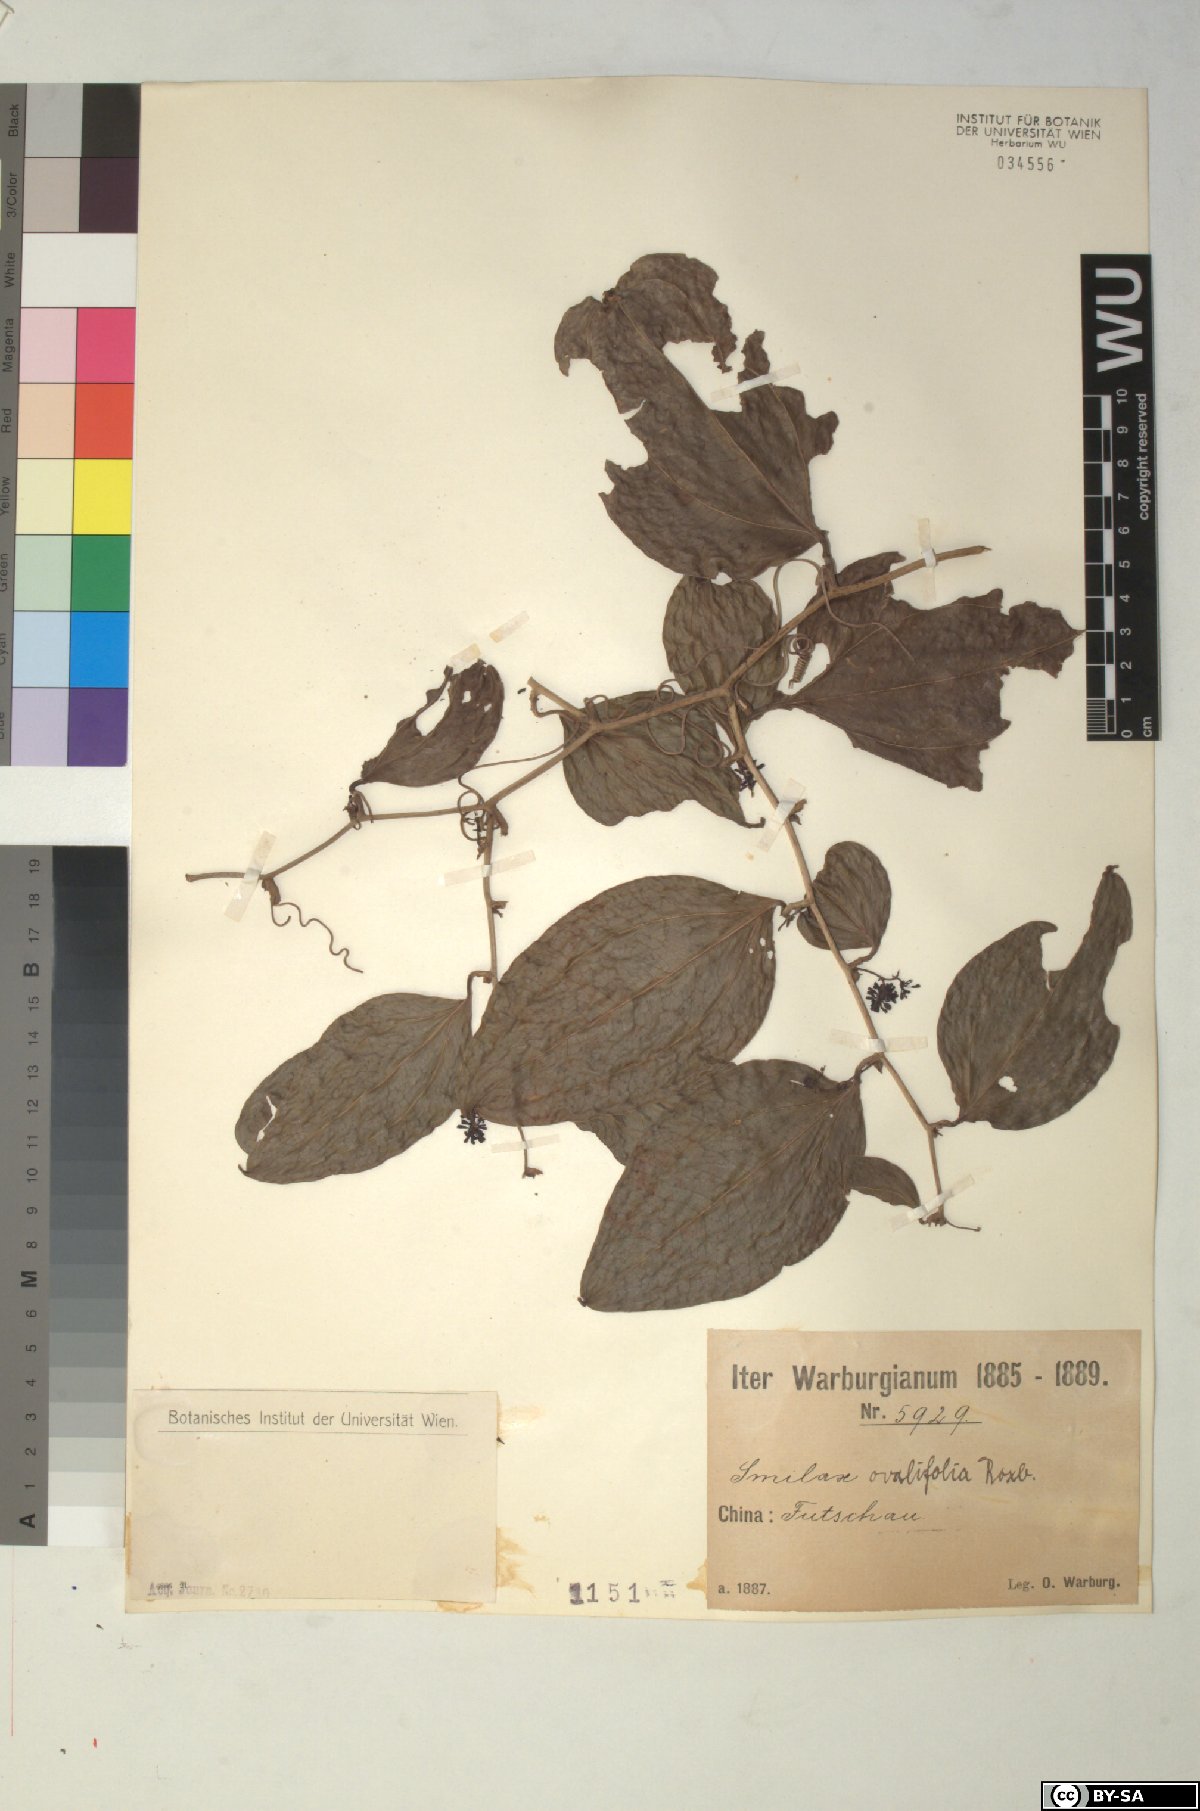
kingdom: Plantae
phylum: Tracheophyta
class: Liliopsida
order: Liliales
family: Smilacaceae
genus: Smilax
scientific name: Smilax ovalifolia
